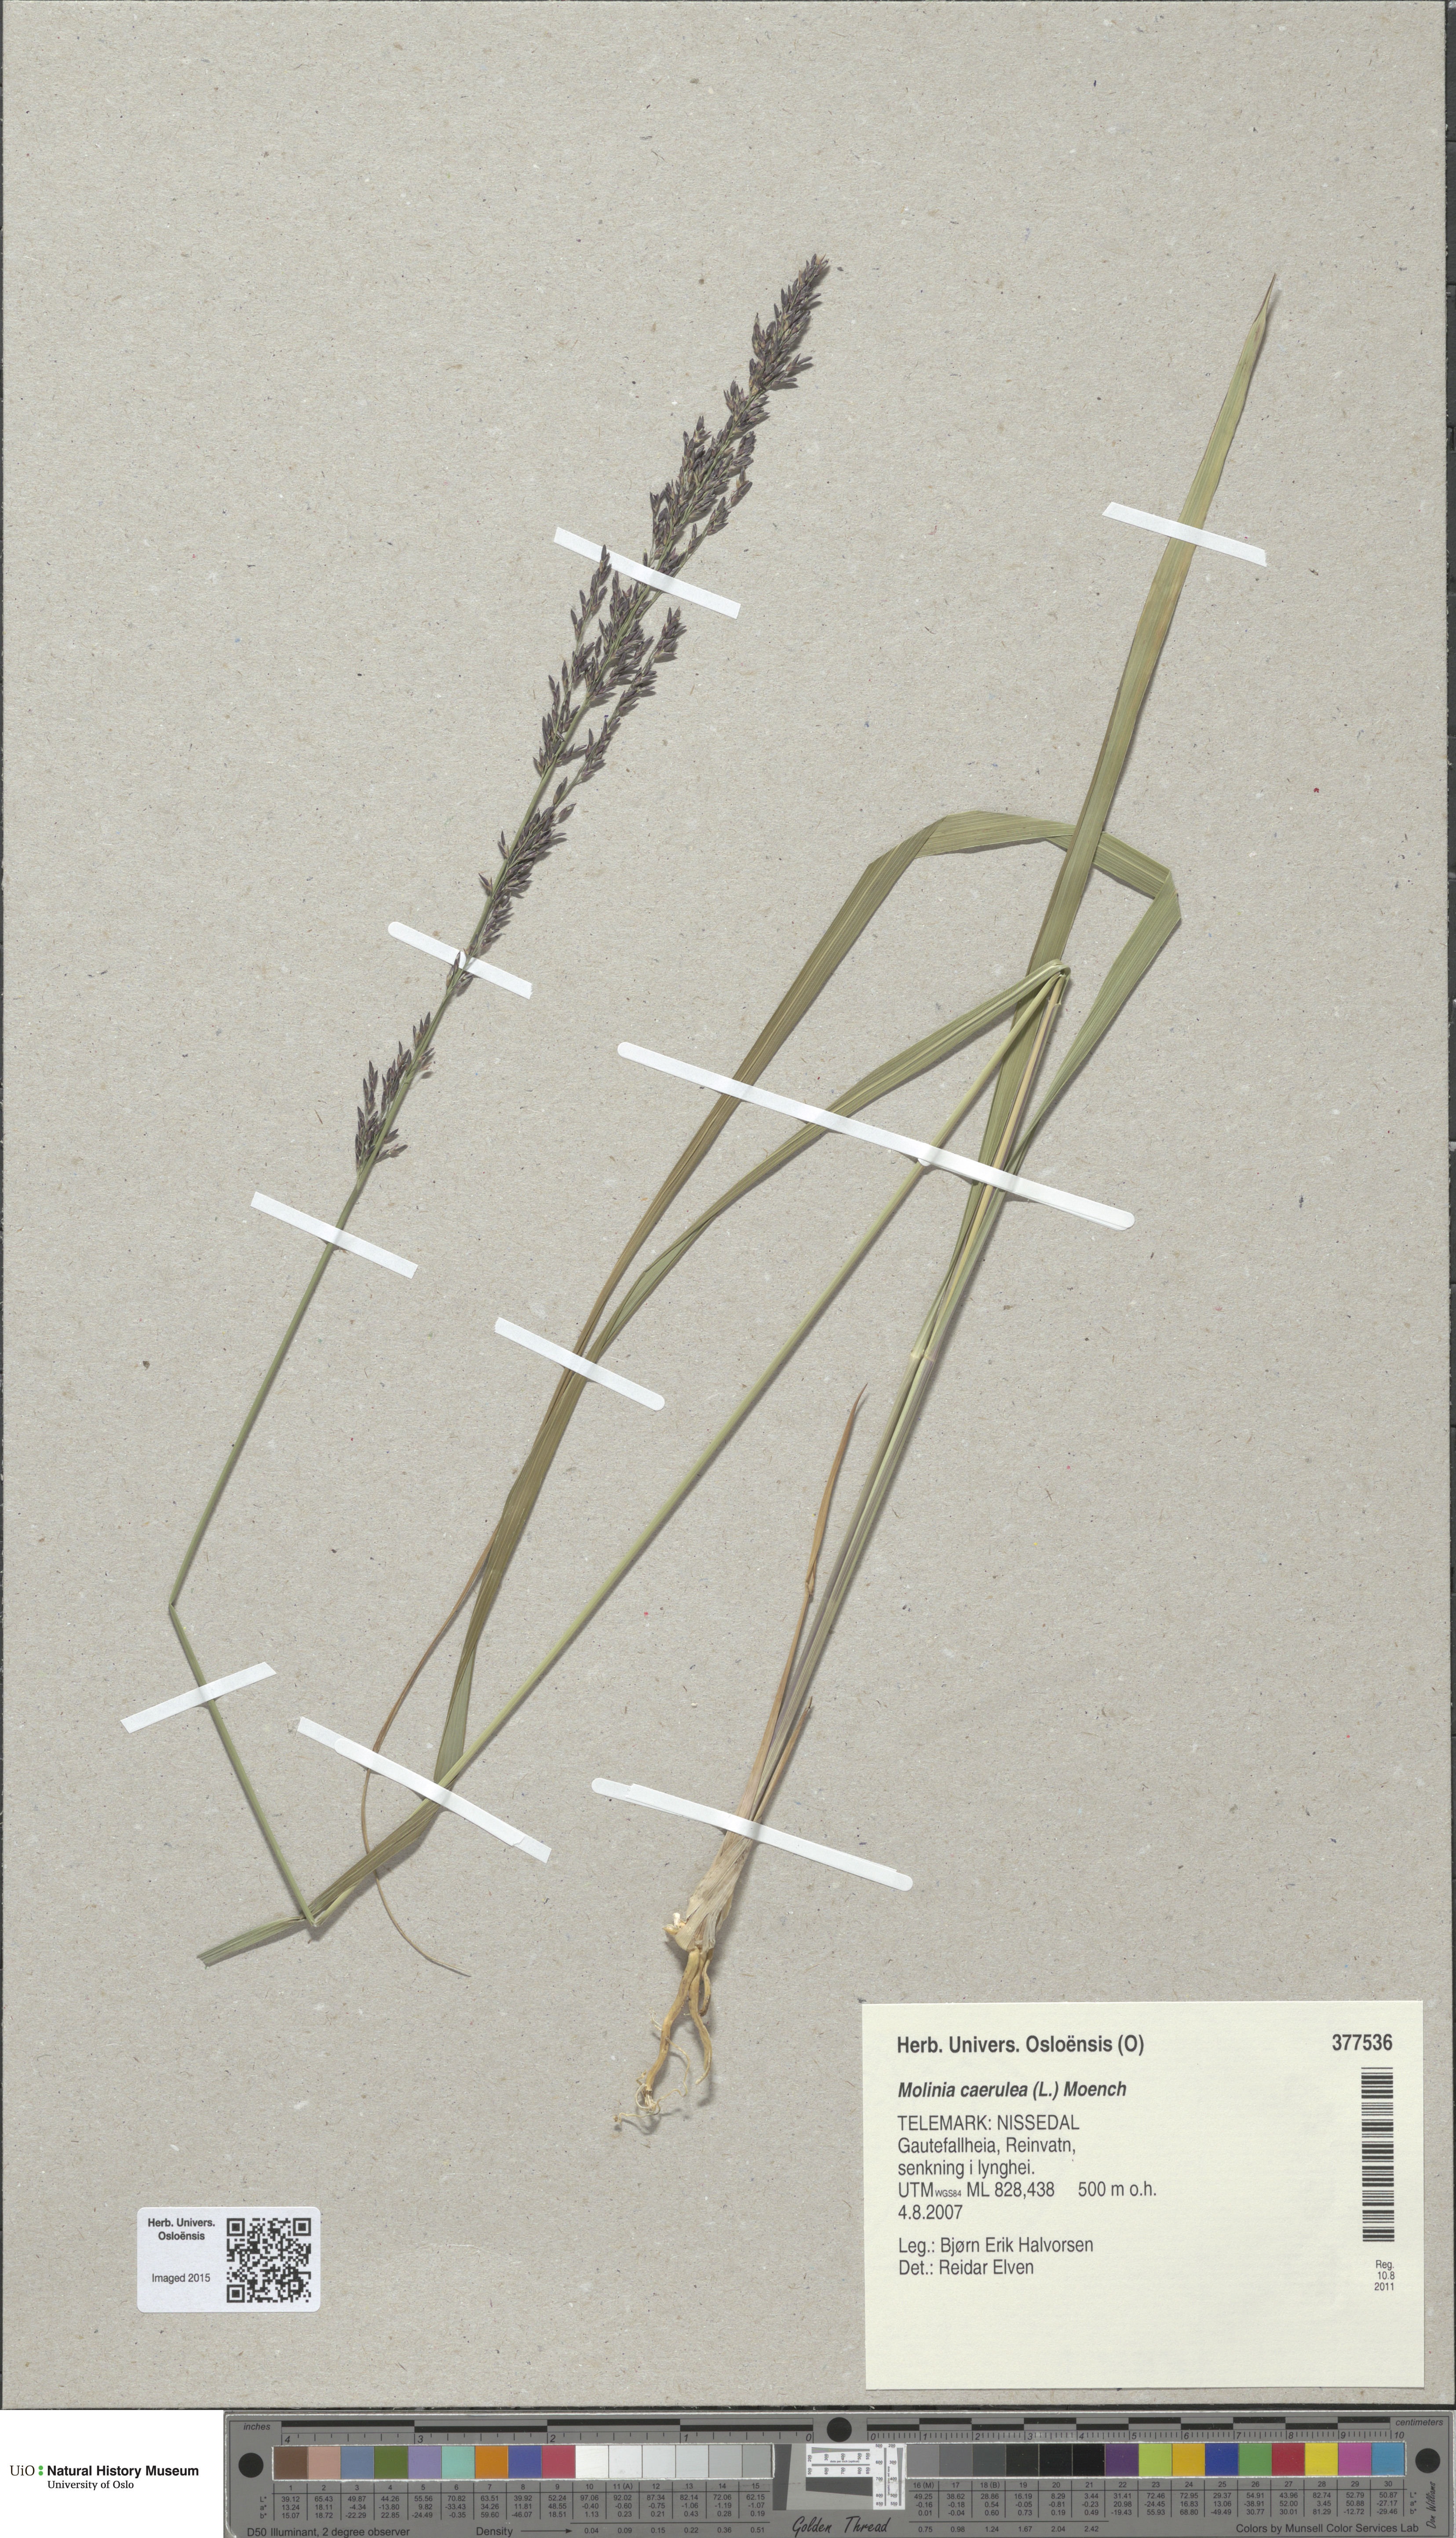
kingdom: Plantae
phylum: Tracheophyta
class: Liliopsida
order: Poales
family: Poaceae
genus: Molinia
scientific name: Molinia caerulea
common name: Purple moor-grass
